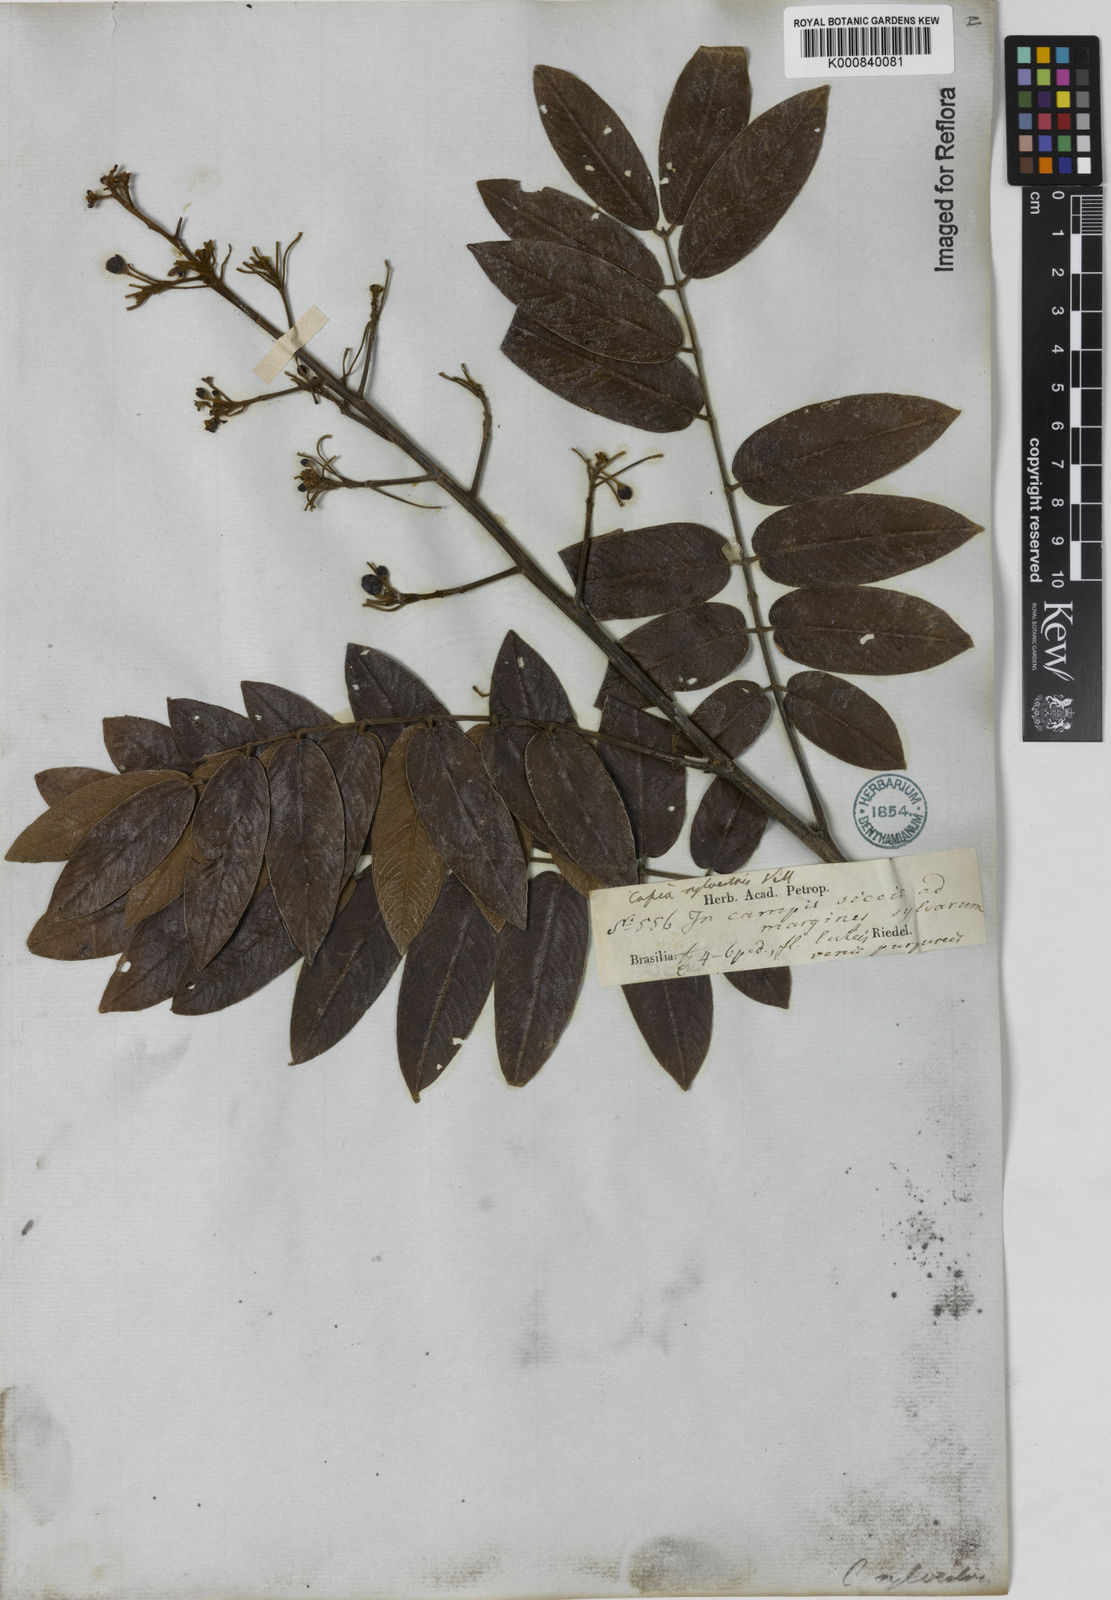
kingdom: Plantae
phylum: Tracheophyta
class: Magnoliopsida
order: Fabales
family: Fabaceae
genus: Senna
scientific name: Senna silvestris
